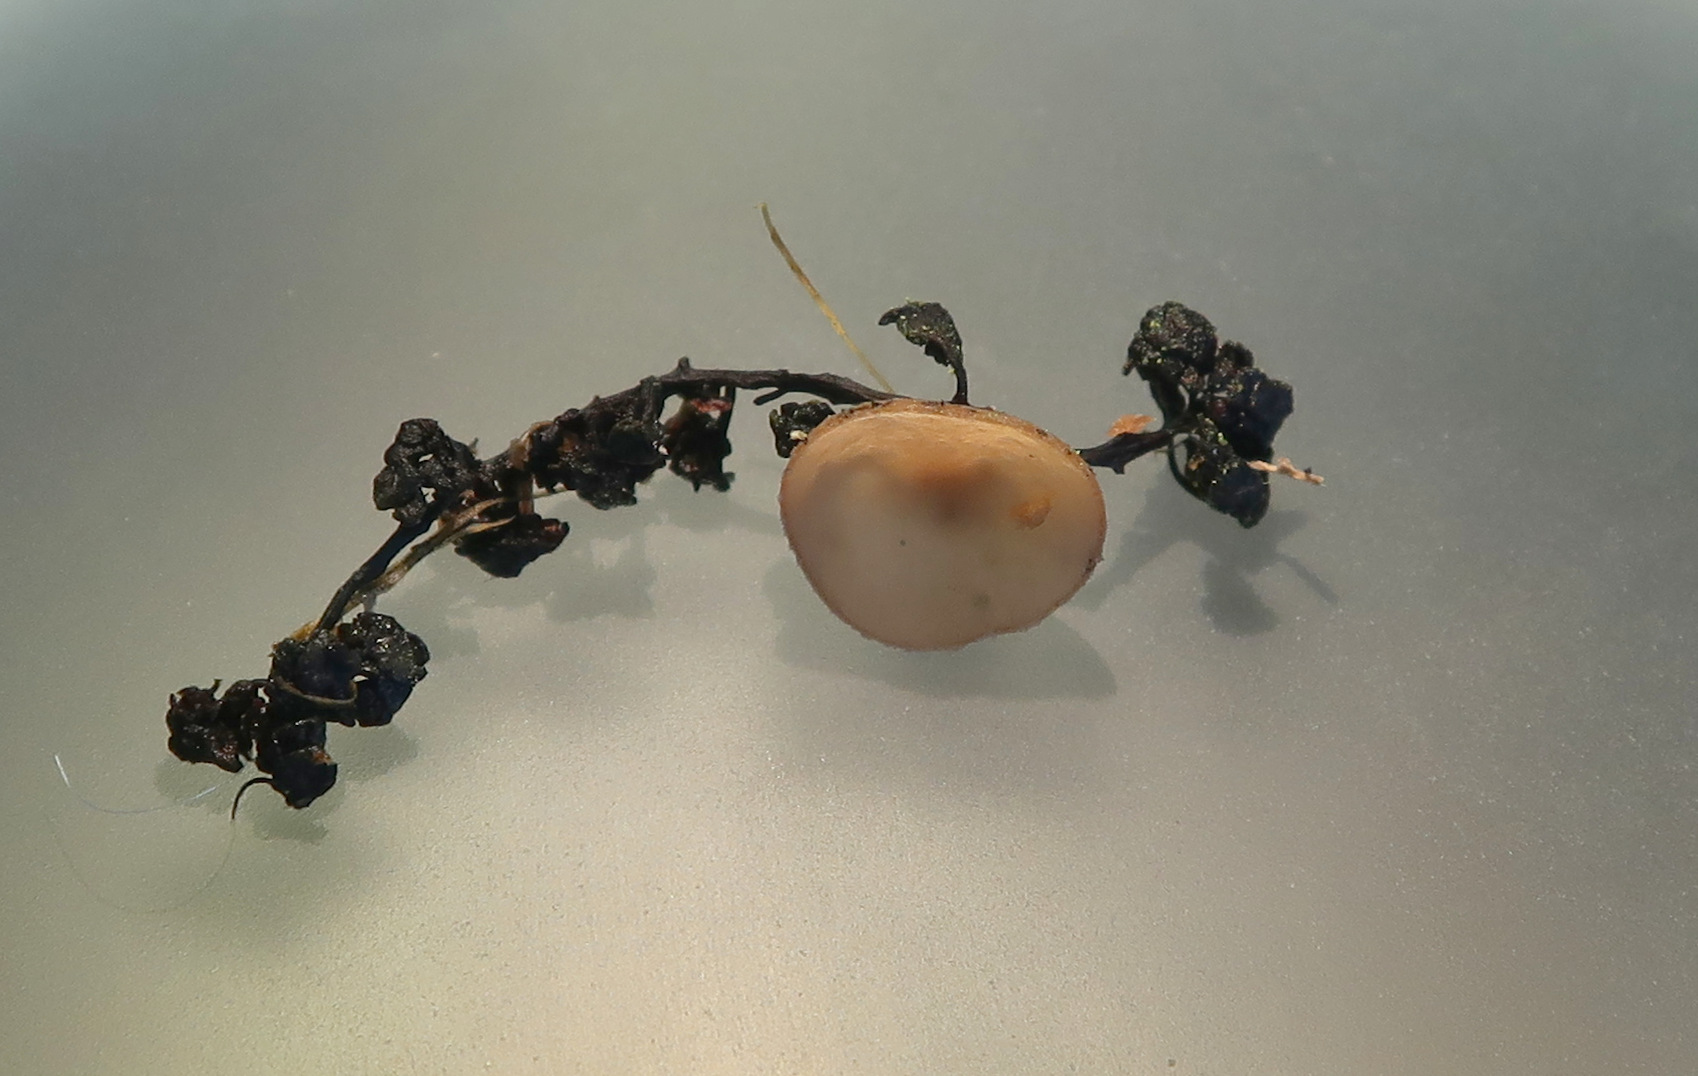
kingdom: Fungi
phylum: Ascomycota
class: Leotiomycetes
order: Helotiales
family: Sclerotiniaceae
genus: Ciboria
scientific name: Ciboria amentacea
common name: ellerakle-knoldskive
